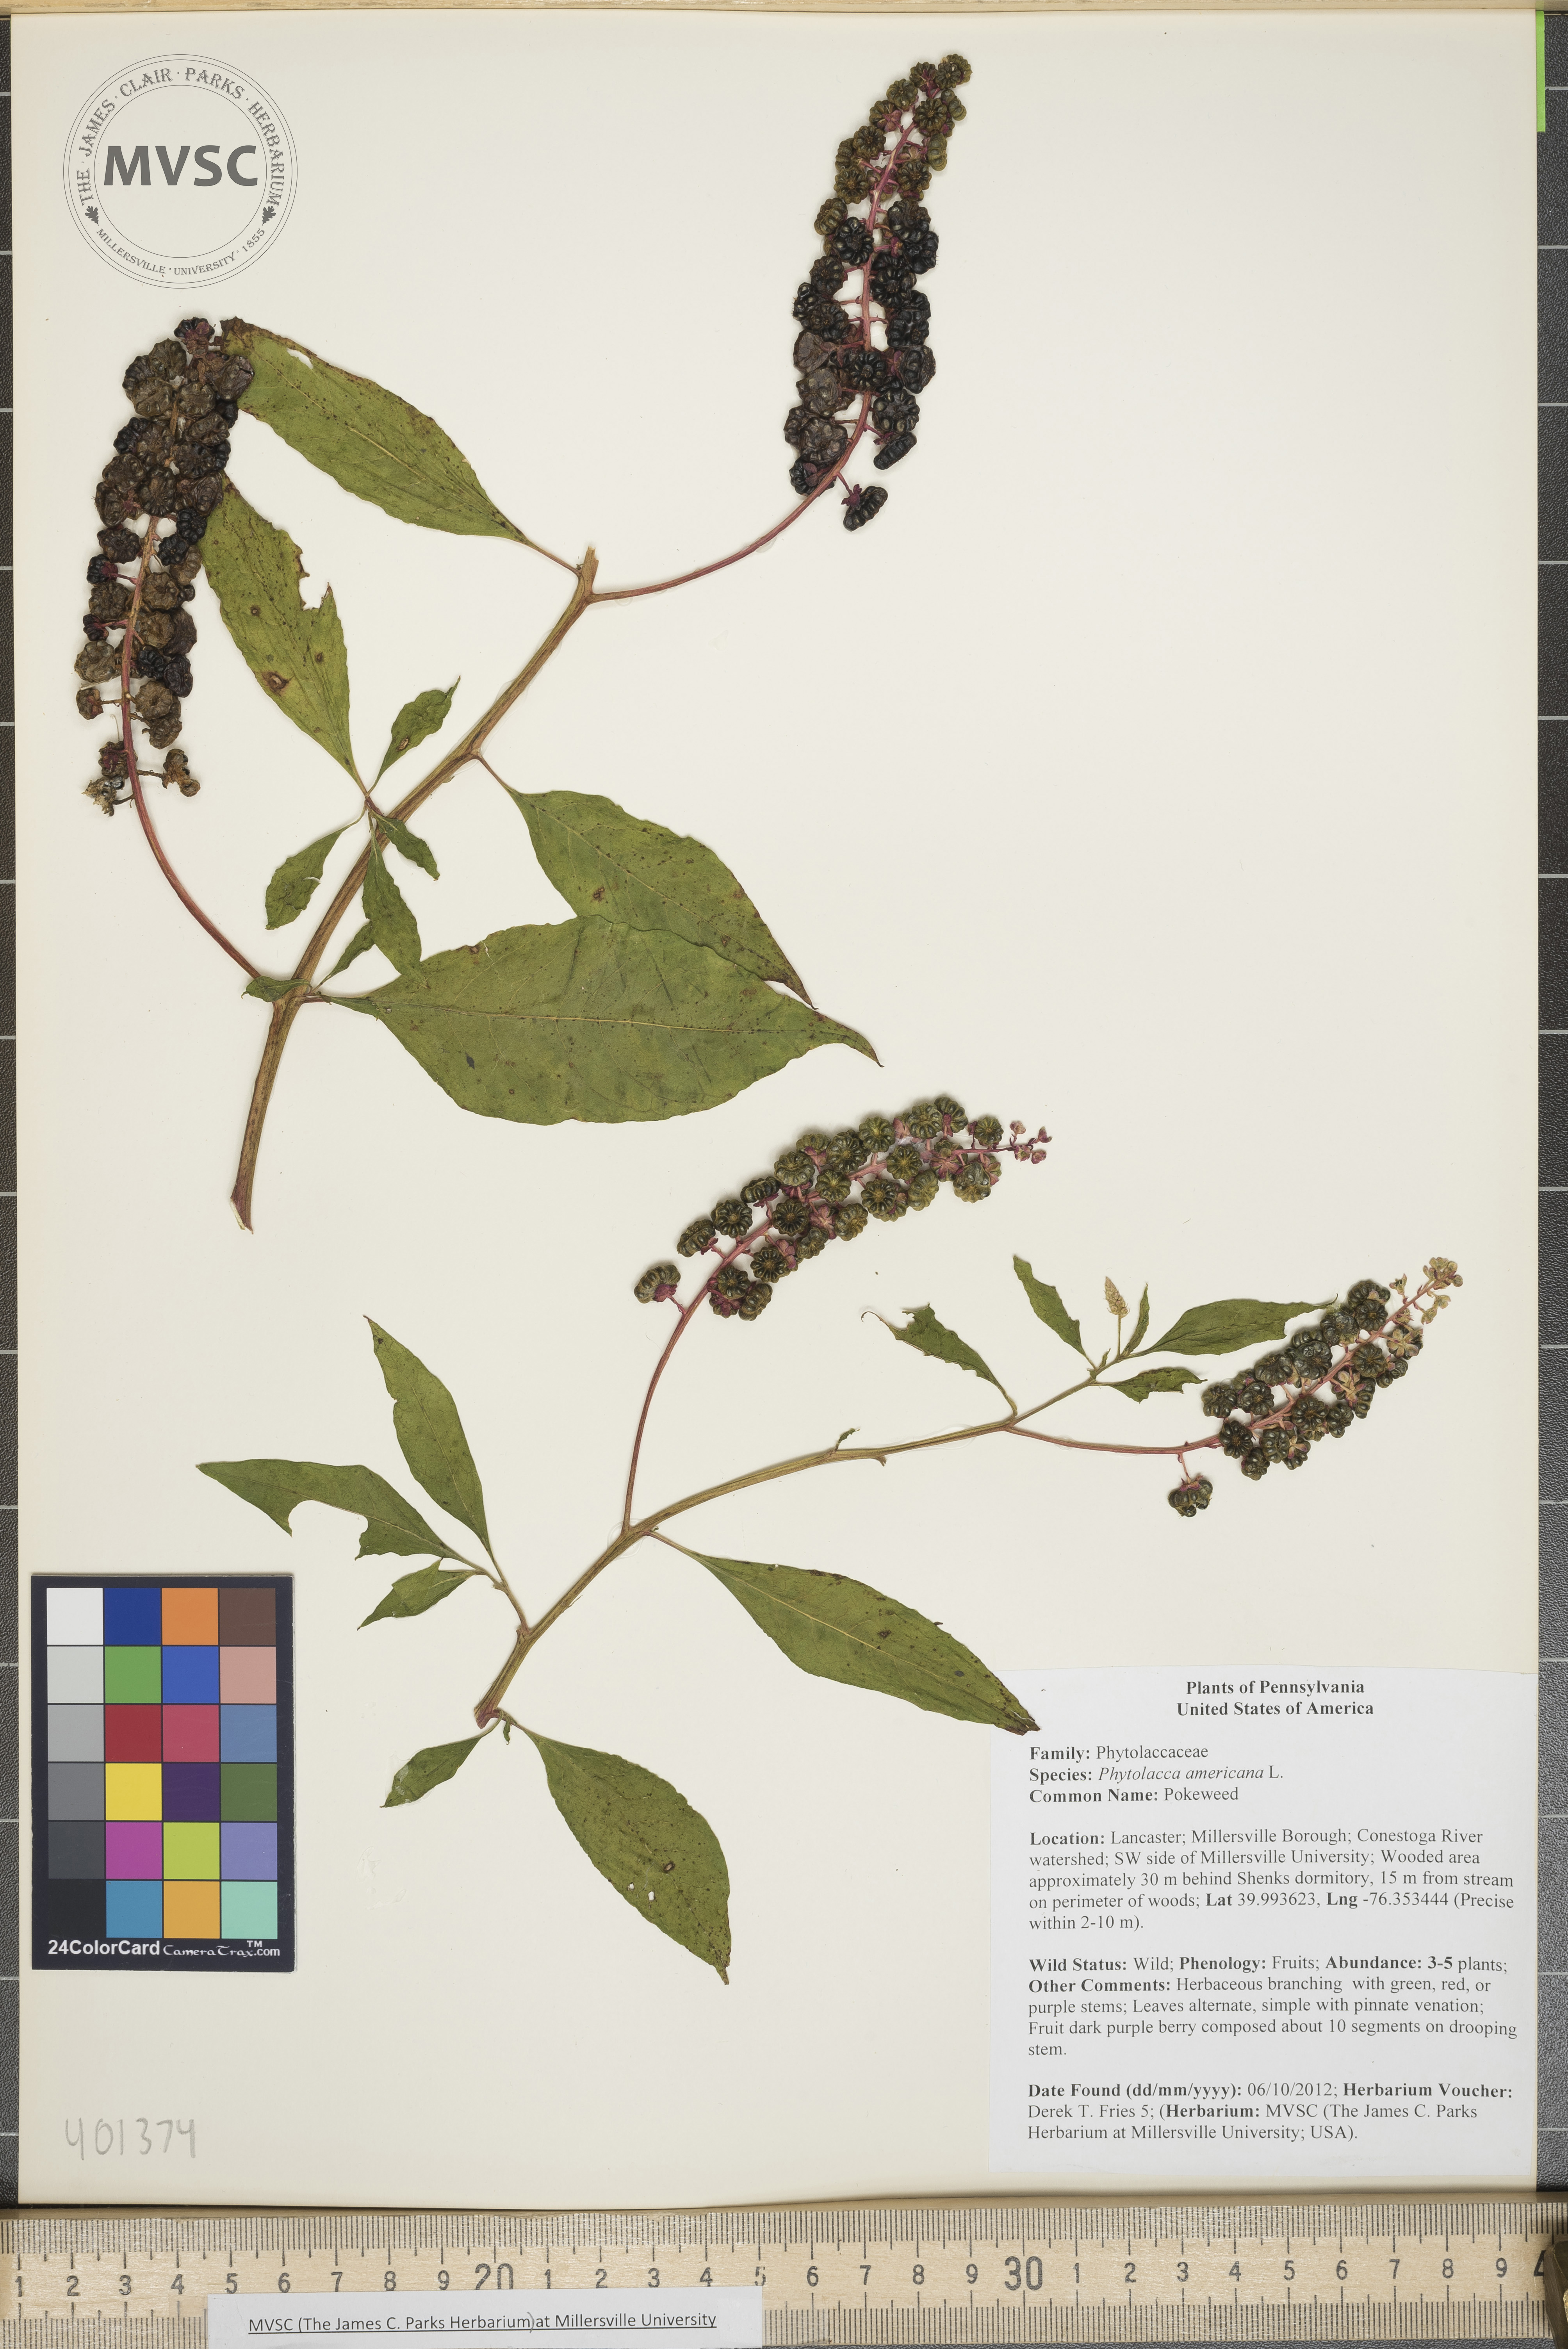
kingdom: Plantae
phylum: Tracheophyta
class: Magnoliopsida
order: Caryophyllales
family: Phytolaccaceae
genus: Phytolacca
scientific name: Phytolacca americana
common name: Pokeweed
